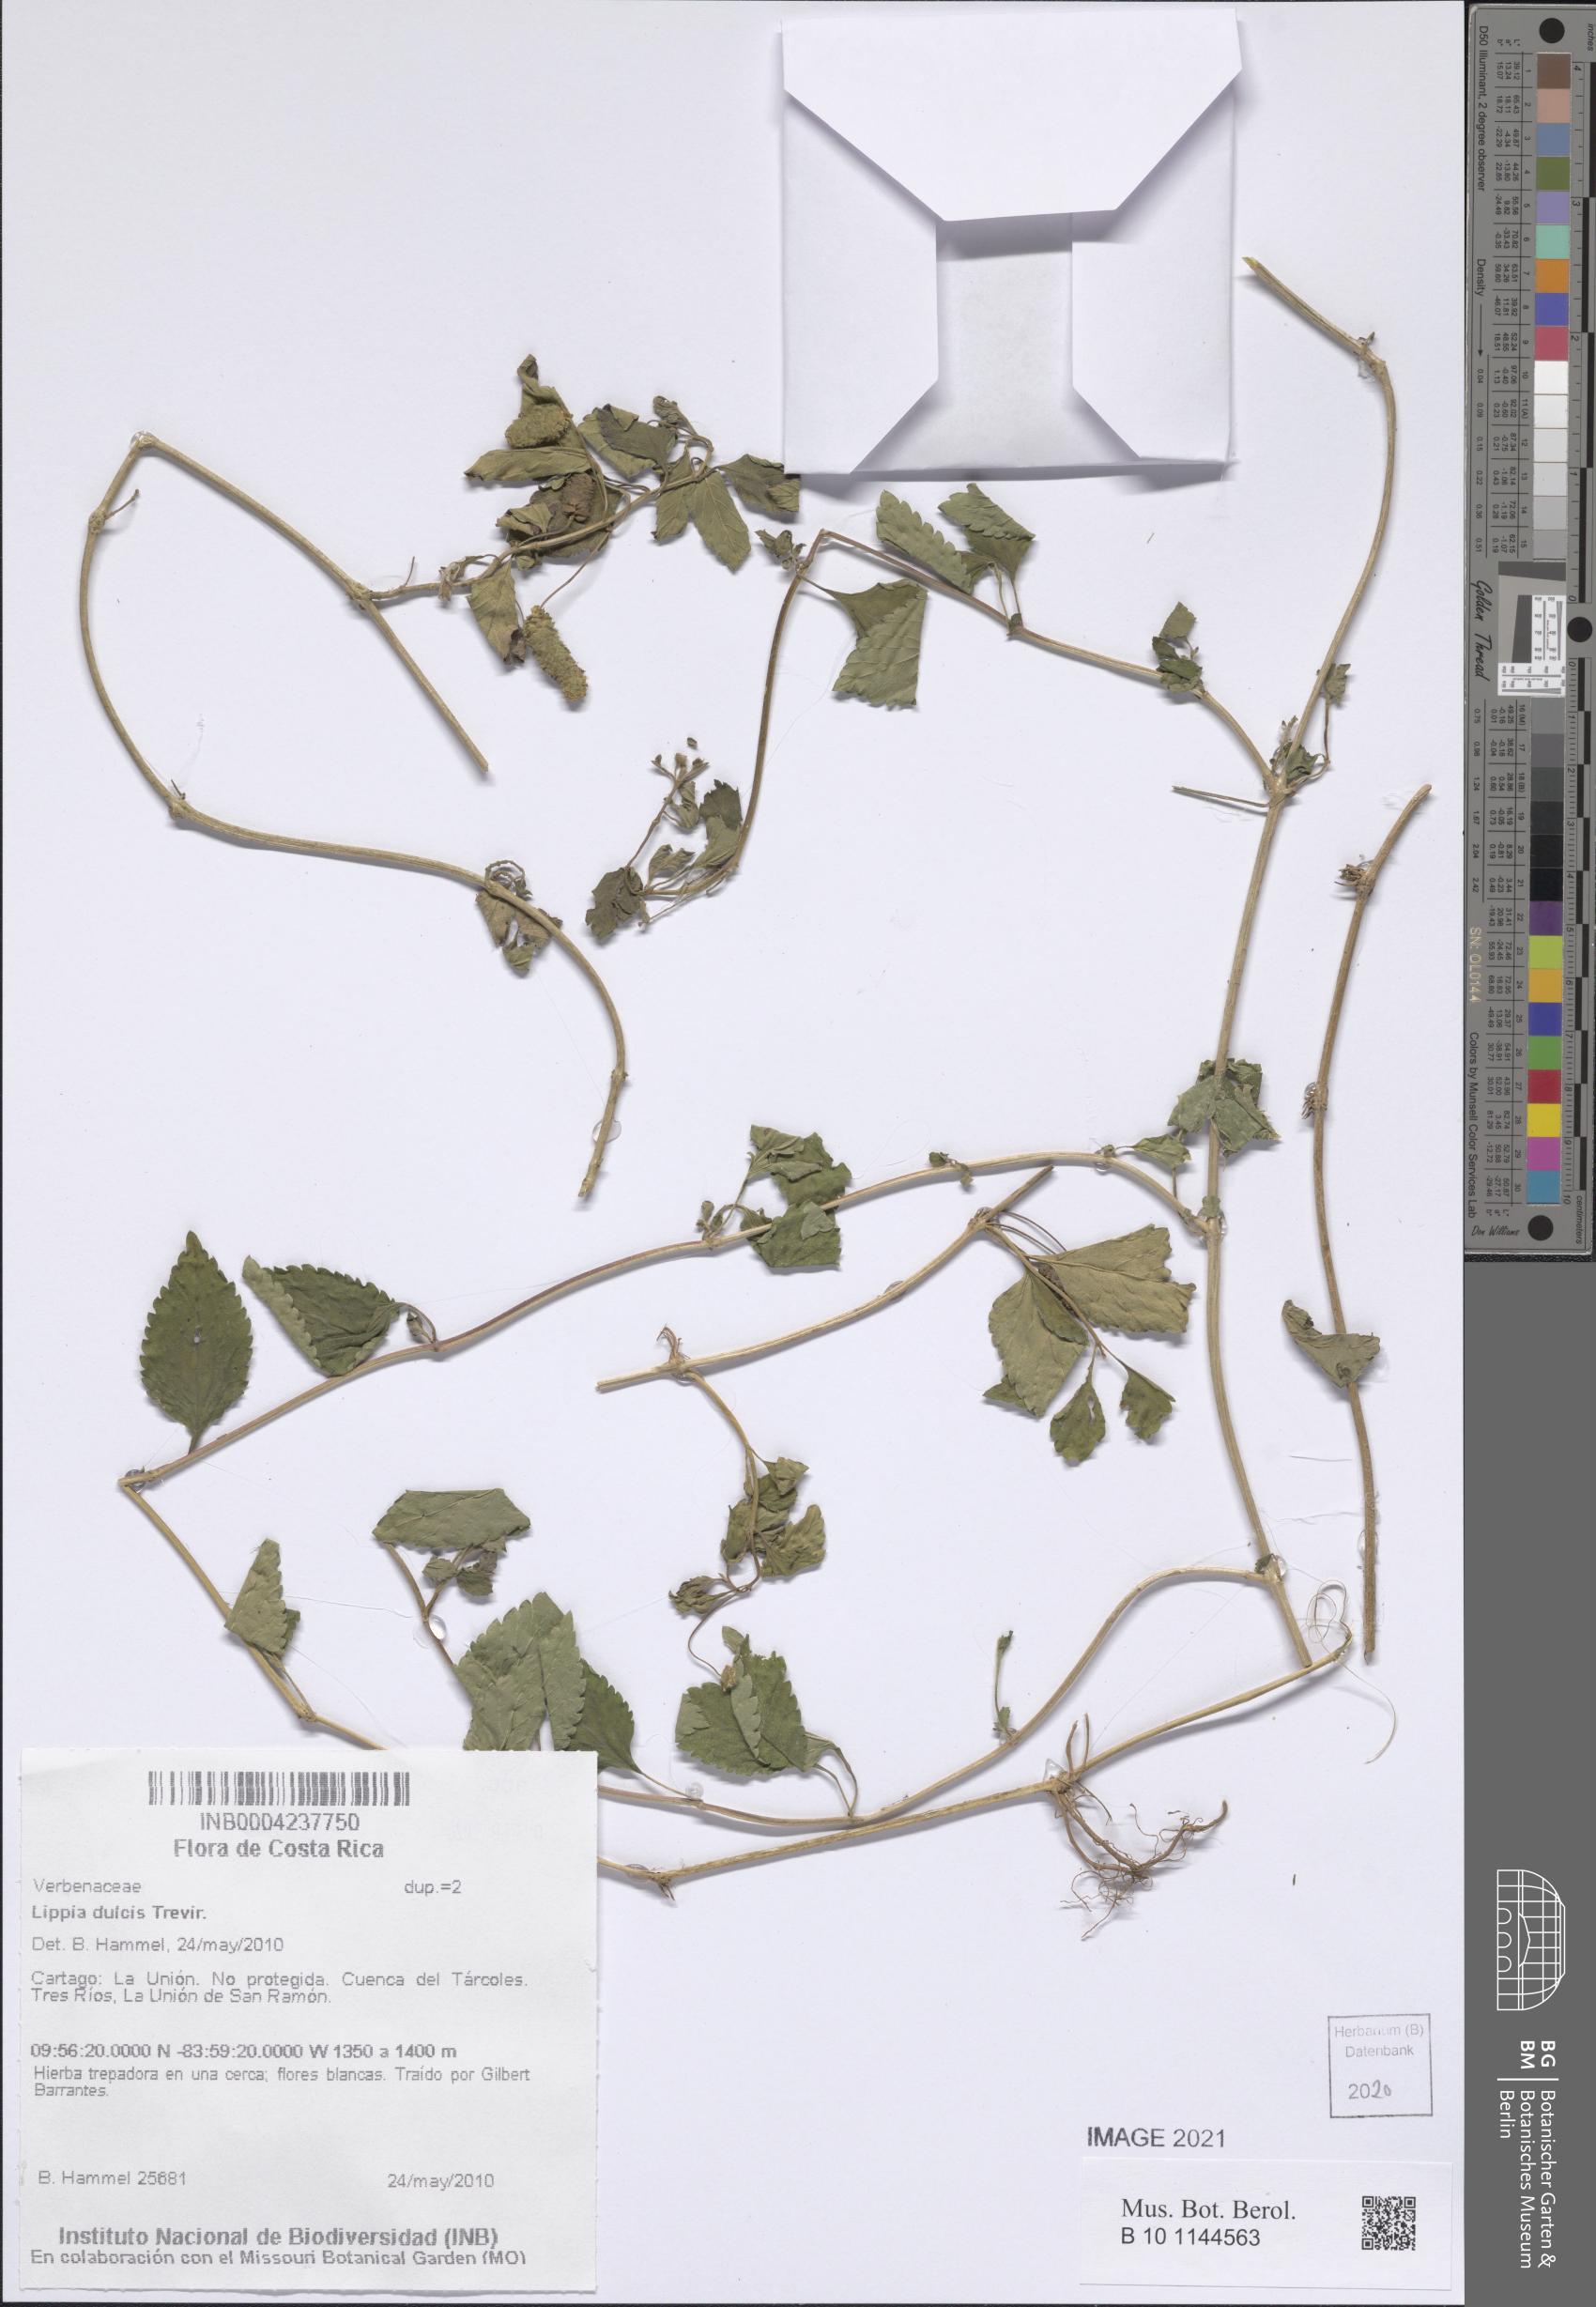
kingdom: Plantae
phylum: Tracheophyta
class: Magnoliopsida
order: Lamiales
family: Verbenaceae
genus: Lippia
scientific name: Lippia dulcis
